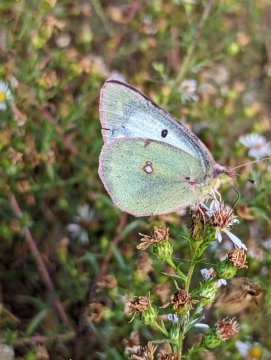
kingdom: Animalia
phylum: Arthropoda
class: Insecta
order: Lepidoptera
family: Pieridae
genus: Colias
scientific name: Colias philodice
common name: Clouded Sulphur
